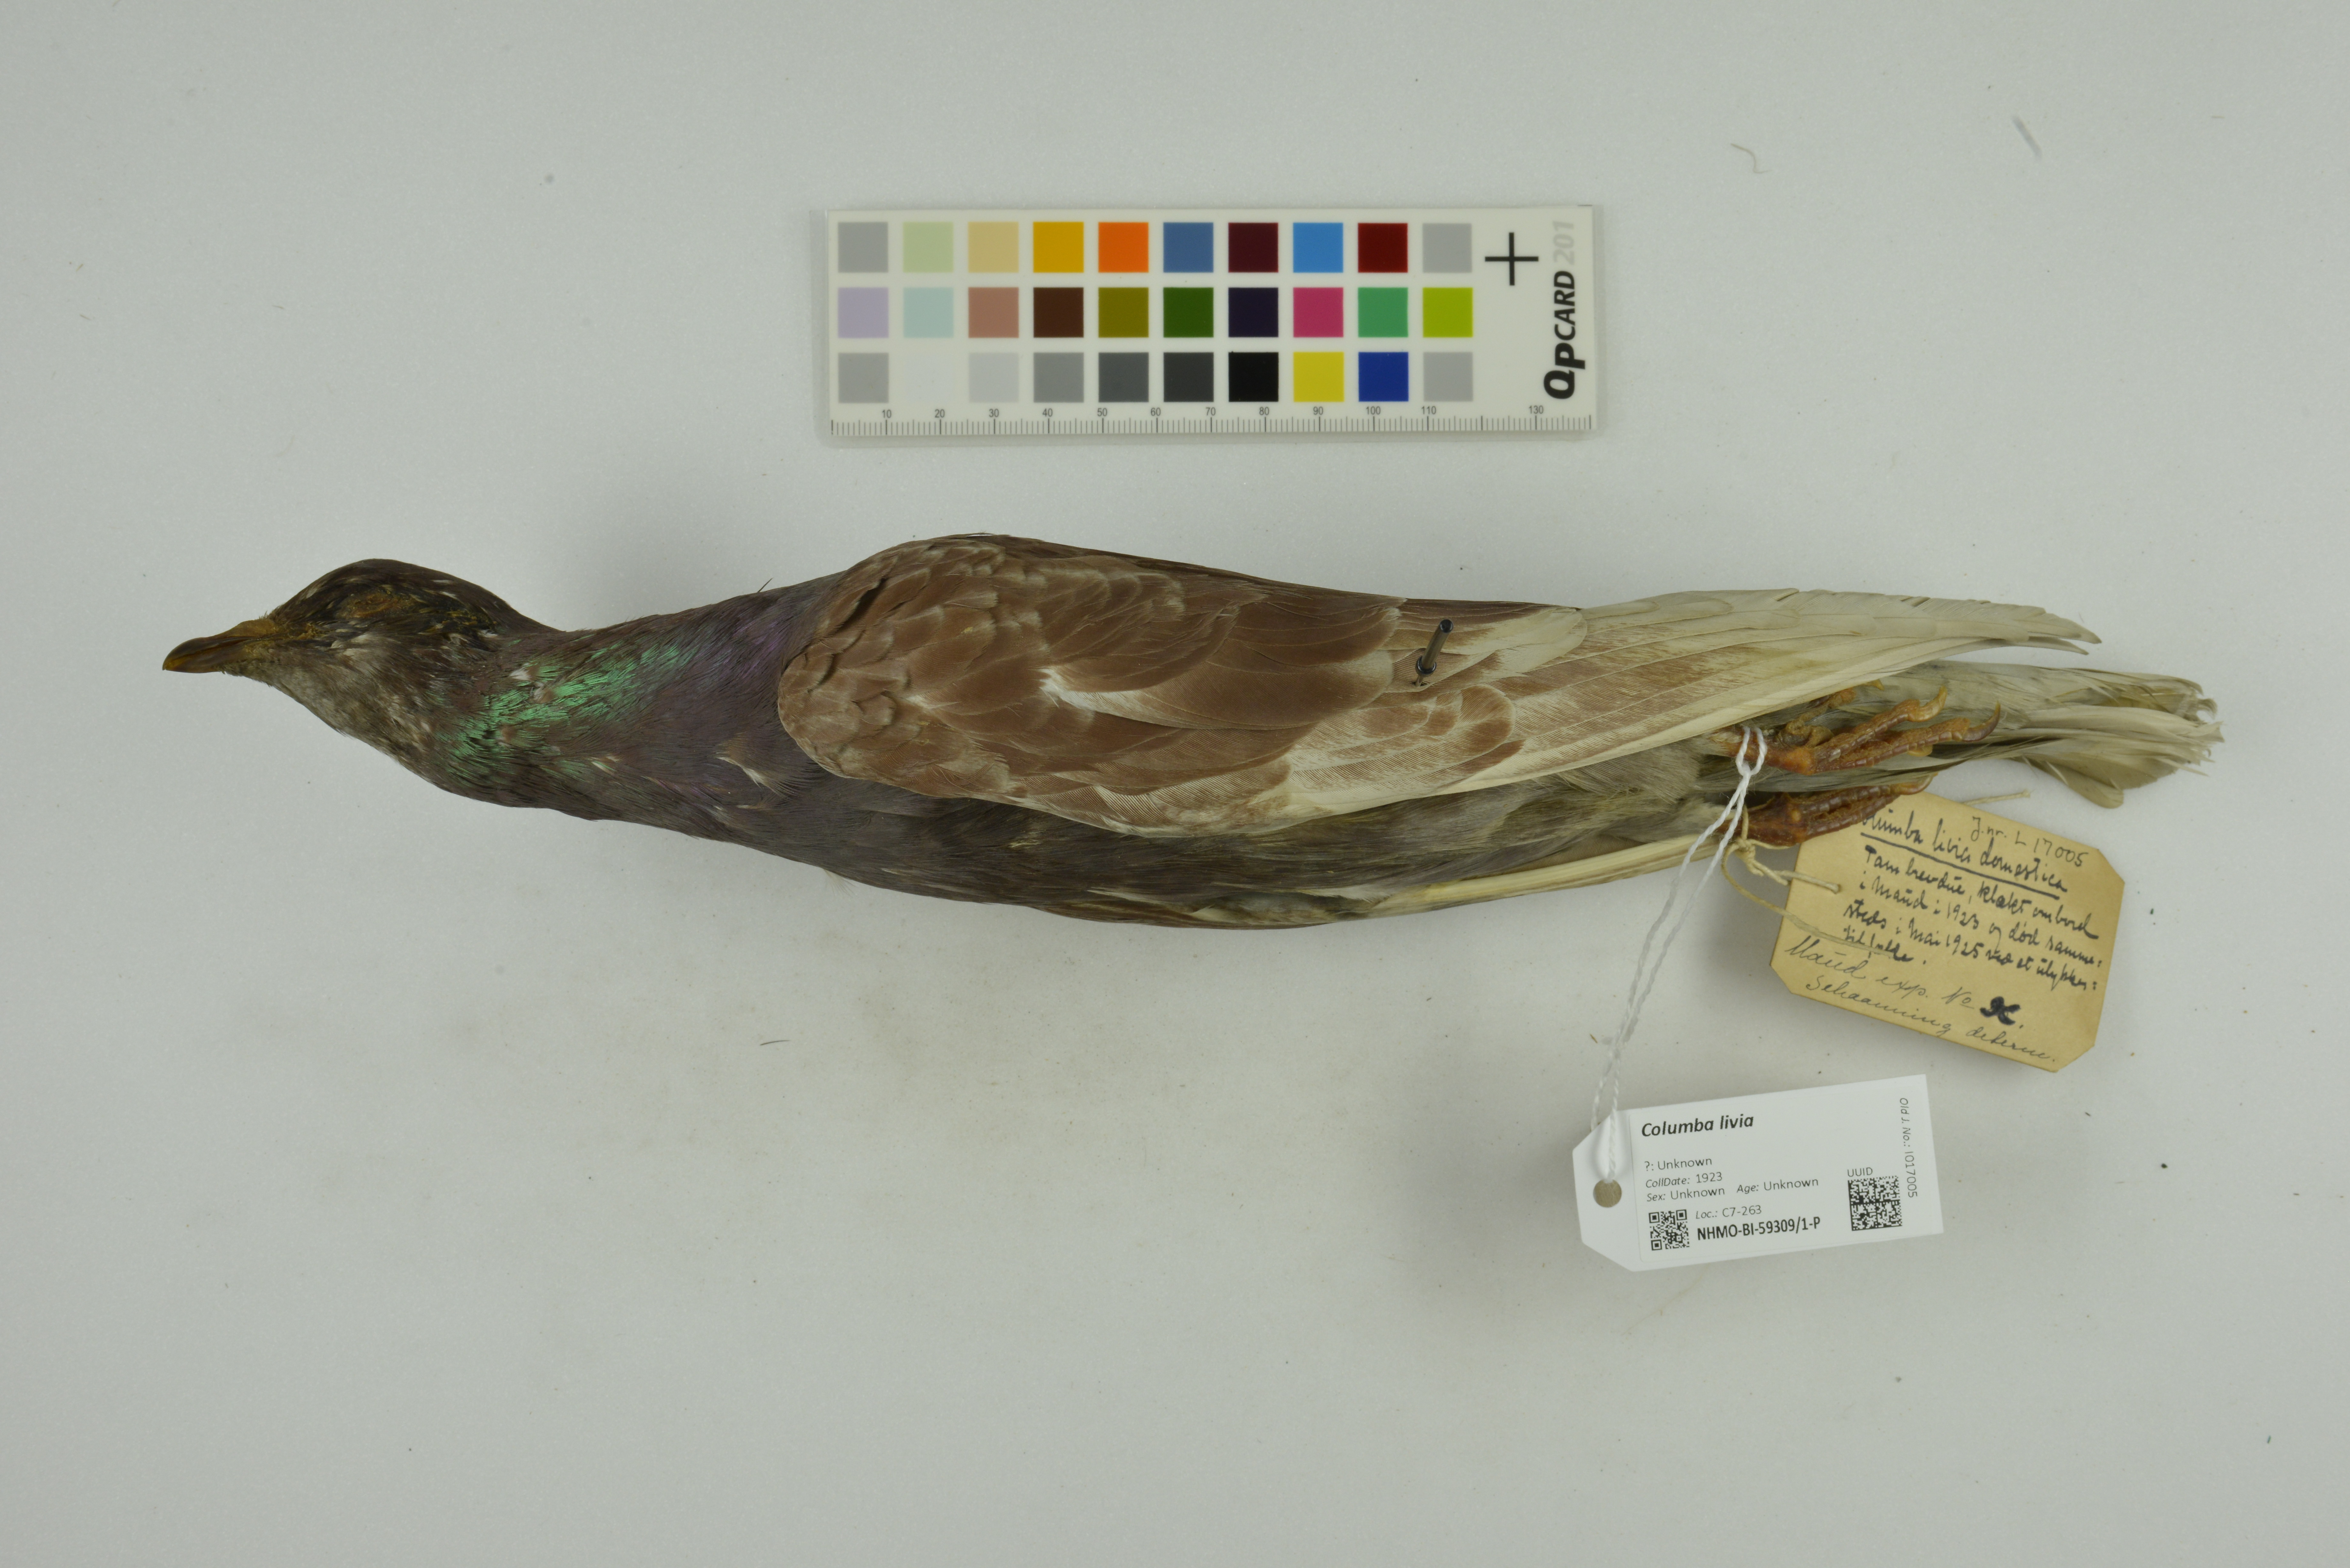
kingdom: Animalia
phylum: Chordata
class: Aves
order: Columbiformes
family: Columbidae
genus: Columba
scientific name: Columba livia
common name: Rock pigeon
